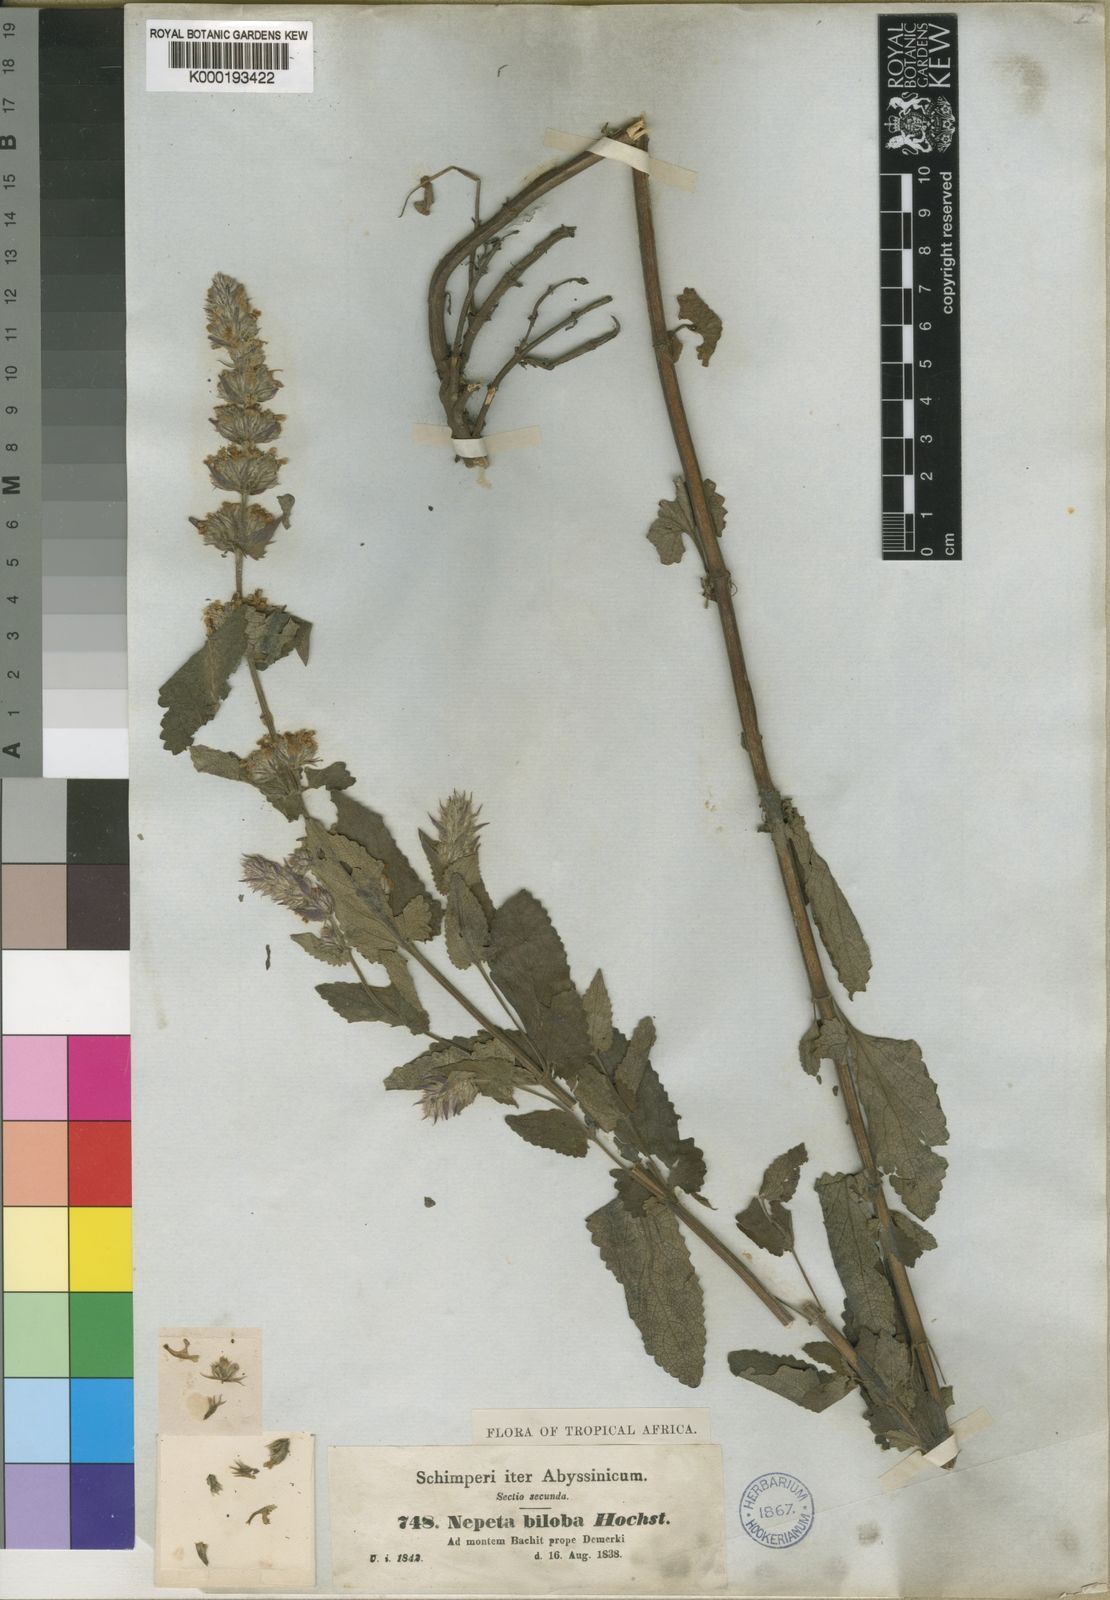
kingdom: Plantae
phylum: Tracheophyta
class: Magnoliopsida
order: Lamiales
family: Lamiaceae
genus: Nepeta
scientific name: Nepeta azurea
